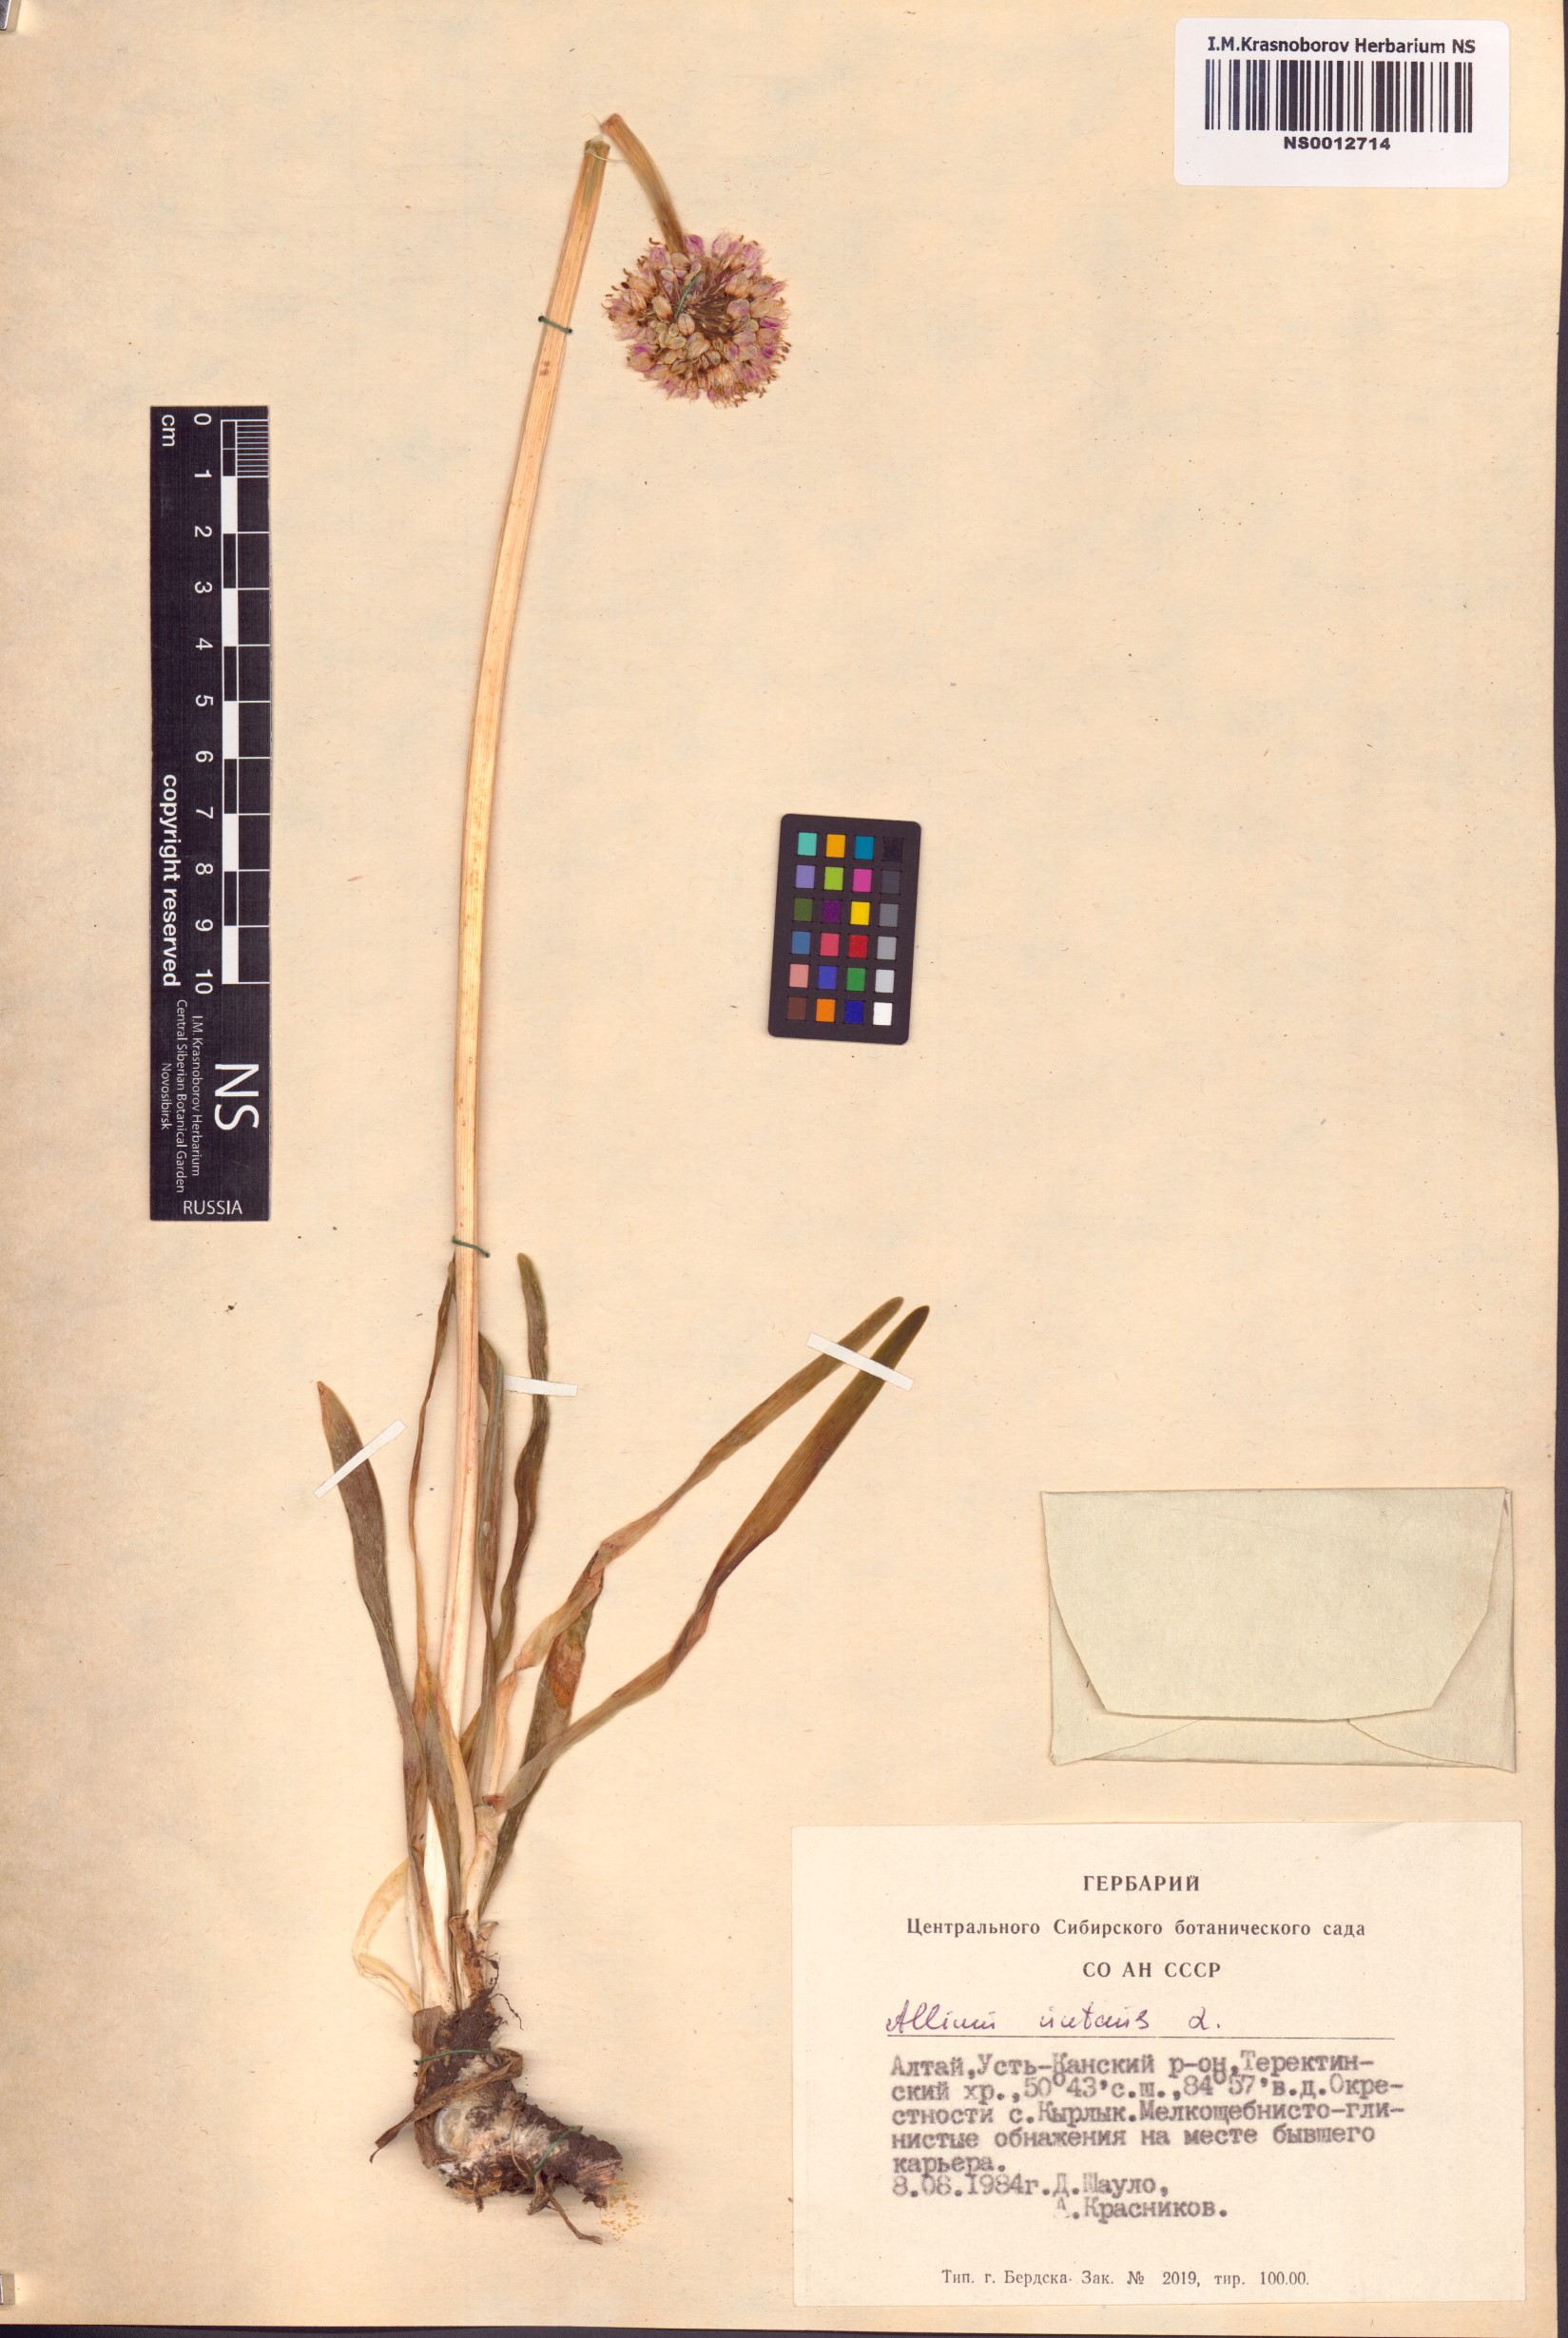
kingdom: Plantae
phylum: Tracheophyta
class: Liliopsida
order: Asparagales
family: Amaryllidaceae
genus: Allium
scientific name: Allium nutans
